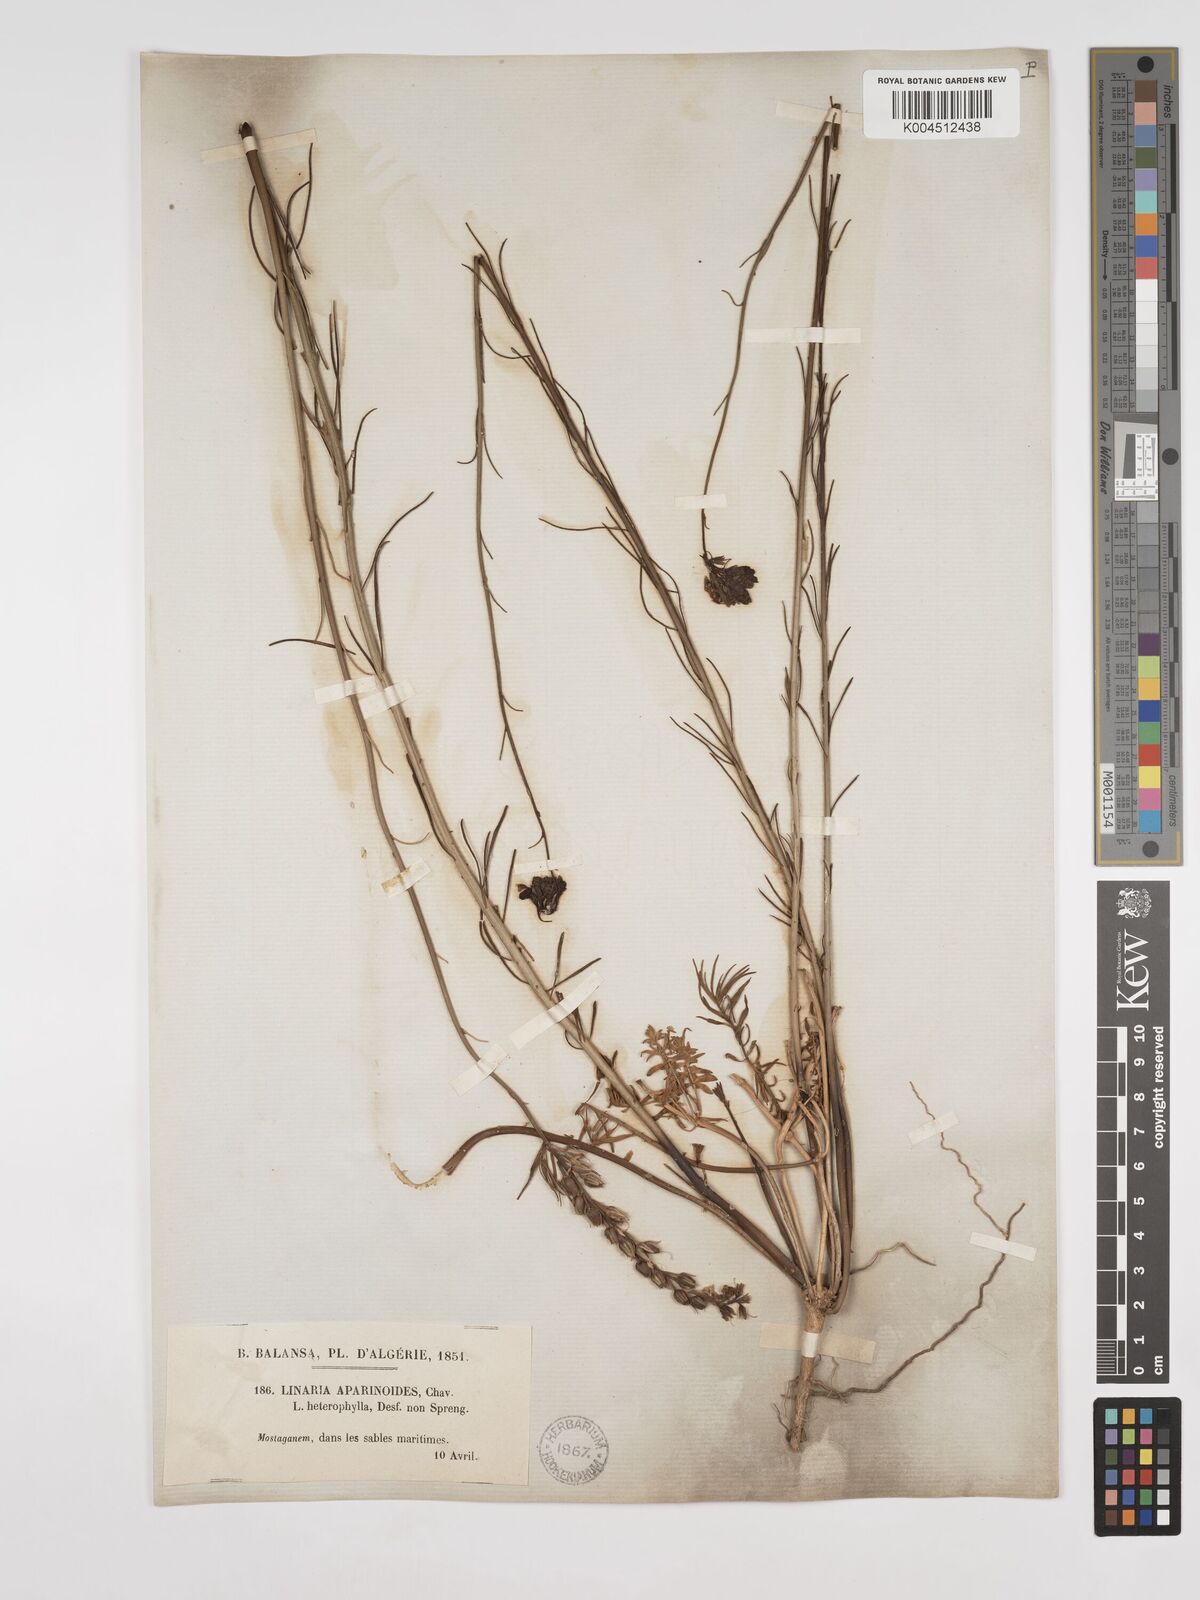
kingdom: Plantae
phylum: Tracheophyta
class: Magnoliopsida
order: Lamiales
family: Plantaginaceae
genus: Linaria
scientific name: Linaria multicaulis
